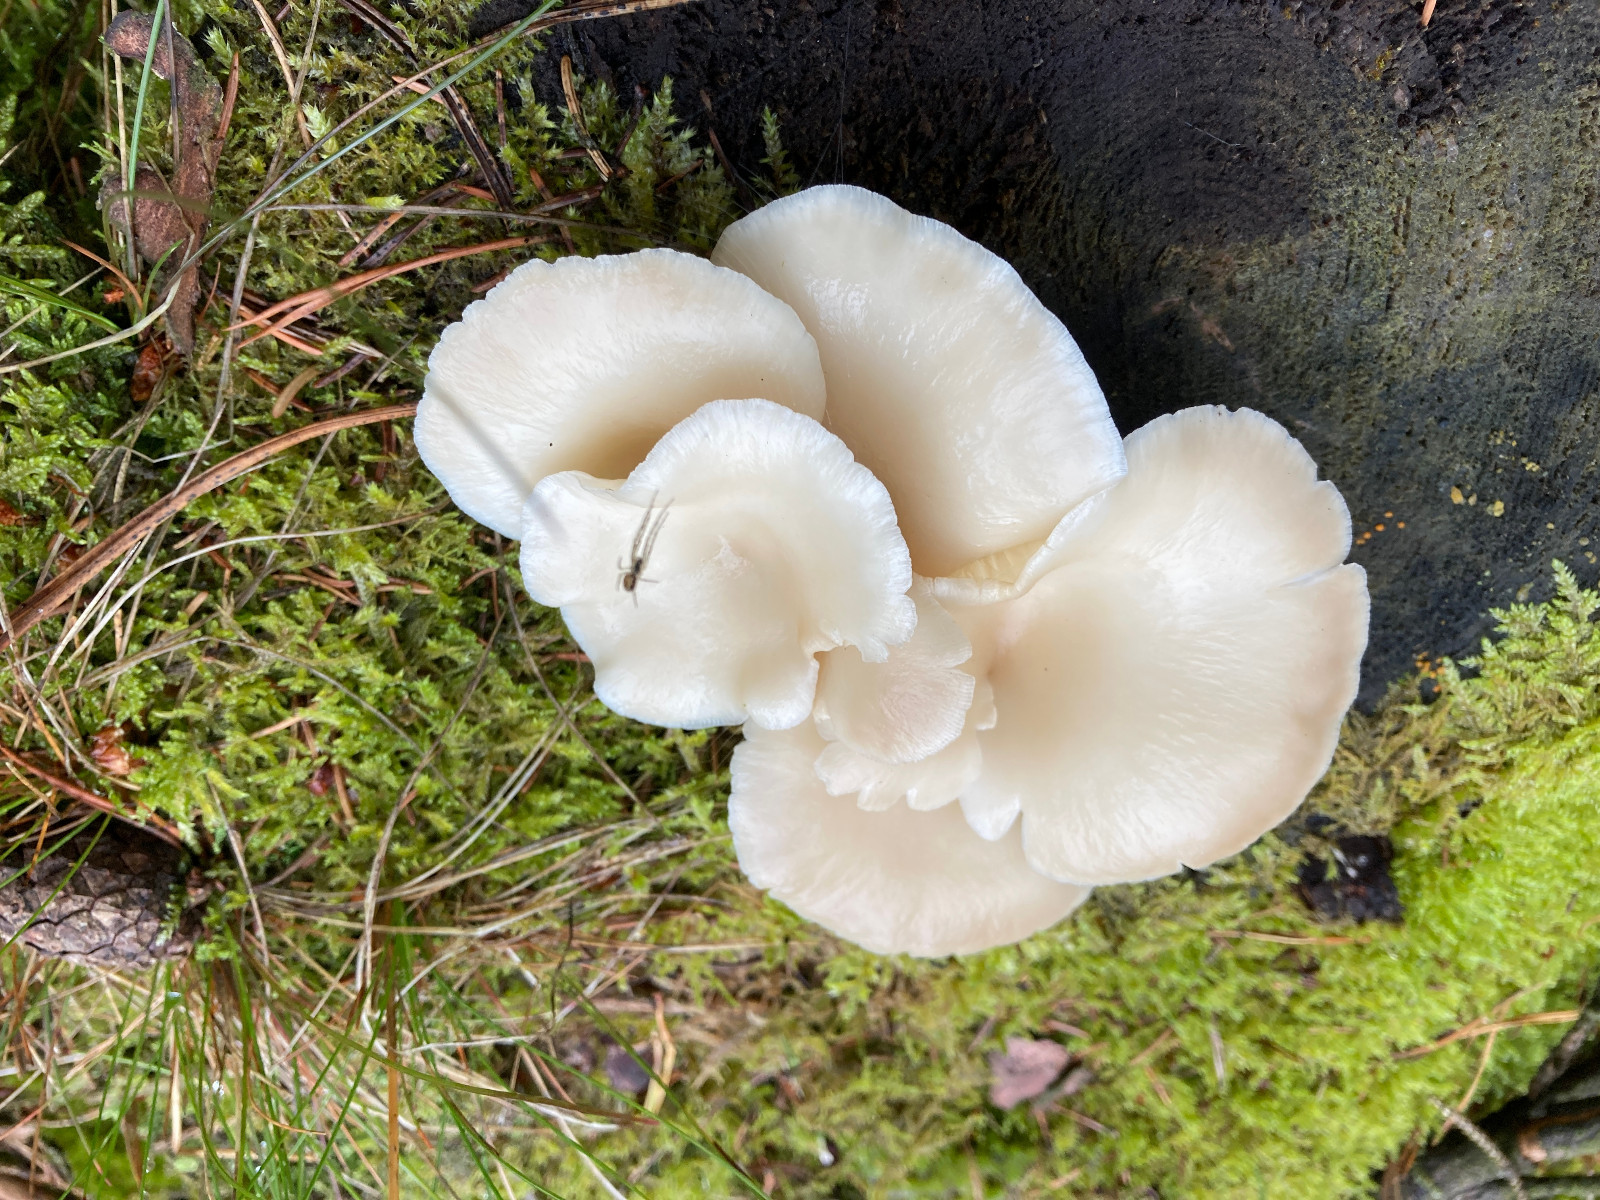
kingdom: Fungi
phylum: Basidiomycota
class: Agaricomycetes
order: Agaricales
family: Pleurotaceae
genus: Pleurotus
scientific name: Pleurotus pulmonarius
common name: sommer-østershat
